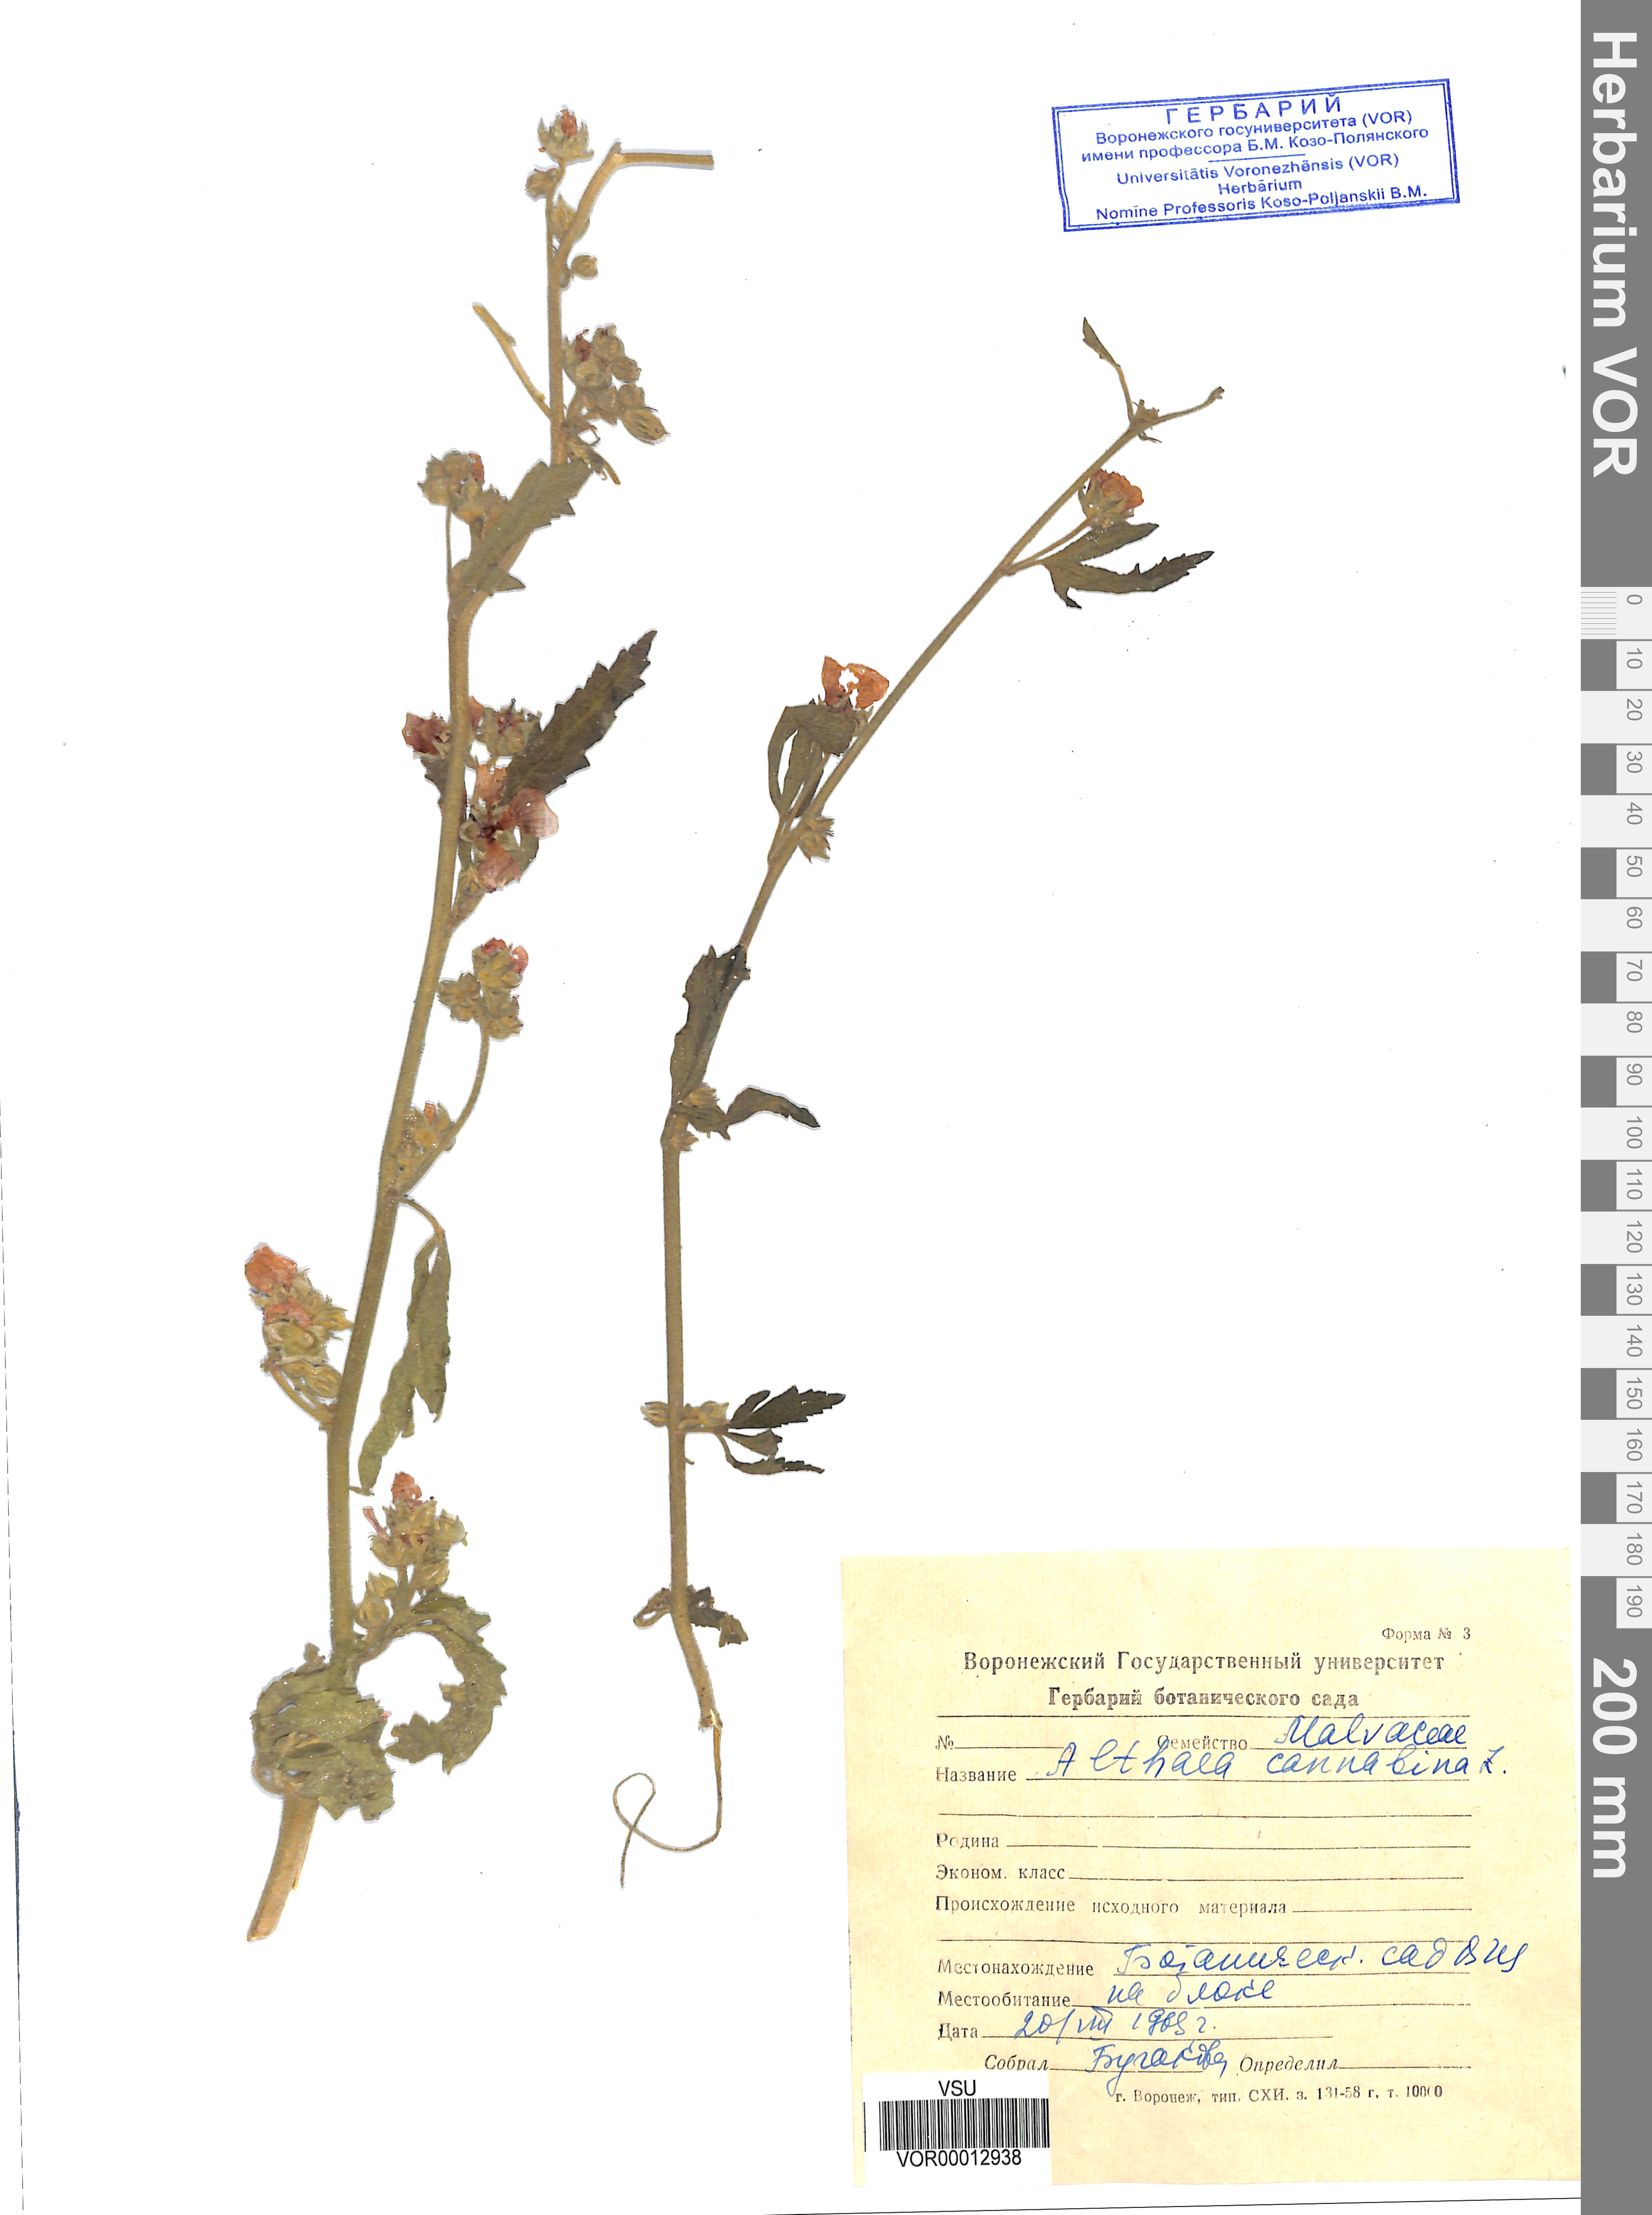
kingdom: Plantae
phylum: Tracheophyta
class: Magnoliopsida
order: Malvales
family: Malvaceae
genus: Althaea
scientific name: Althaea officinalis
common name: Marsh-mallow
